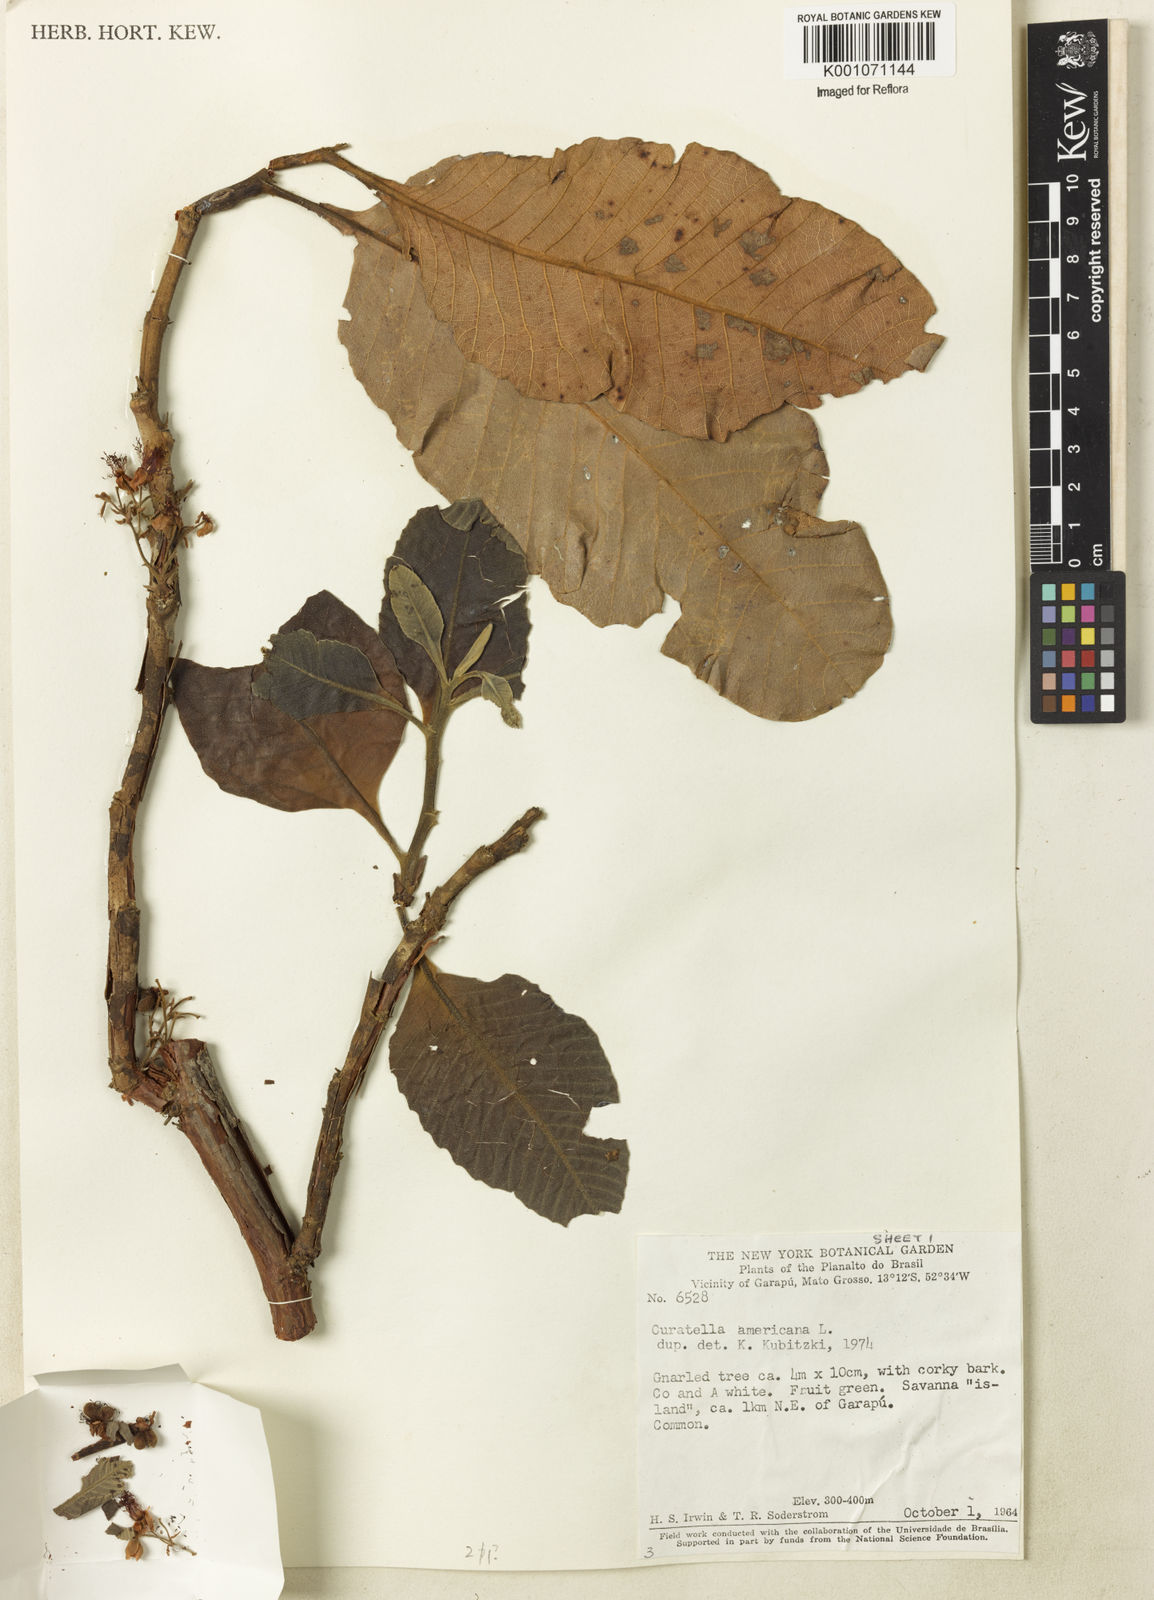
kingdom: Plantae
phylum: Tracheophyta
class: Magnoliopsida
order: Dilleniales
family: Dilleniaceae
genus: Curatella
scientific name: Curatella americana
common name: Sandpaper tree
